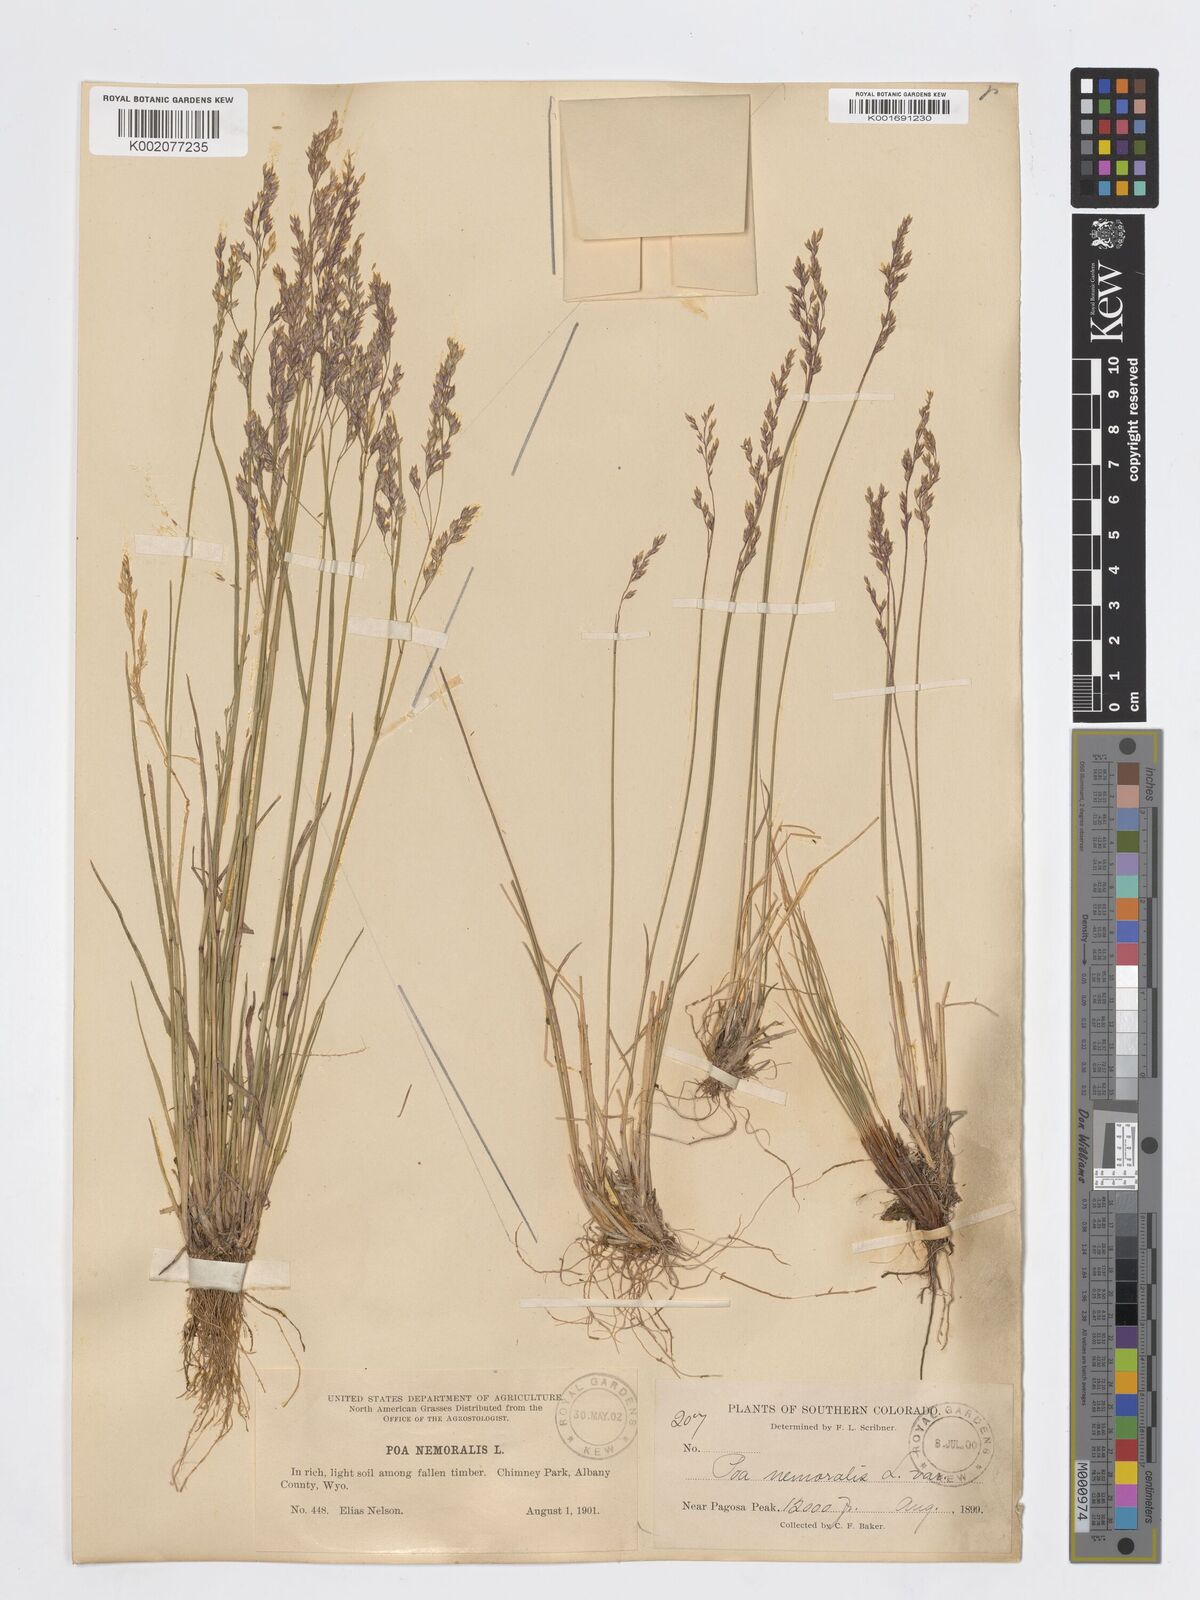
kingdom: Plantae
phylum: Tracheophyta
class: Liliopsida
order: Poales
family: Poaceae
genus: Poa
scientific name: Poa nemoralis
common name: Wood bluegrass
